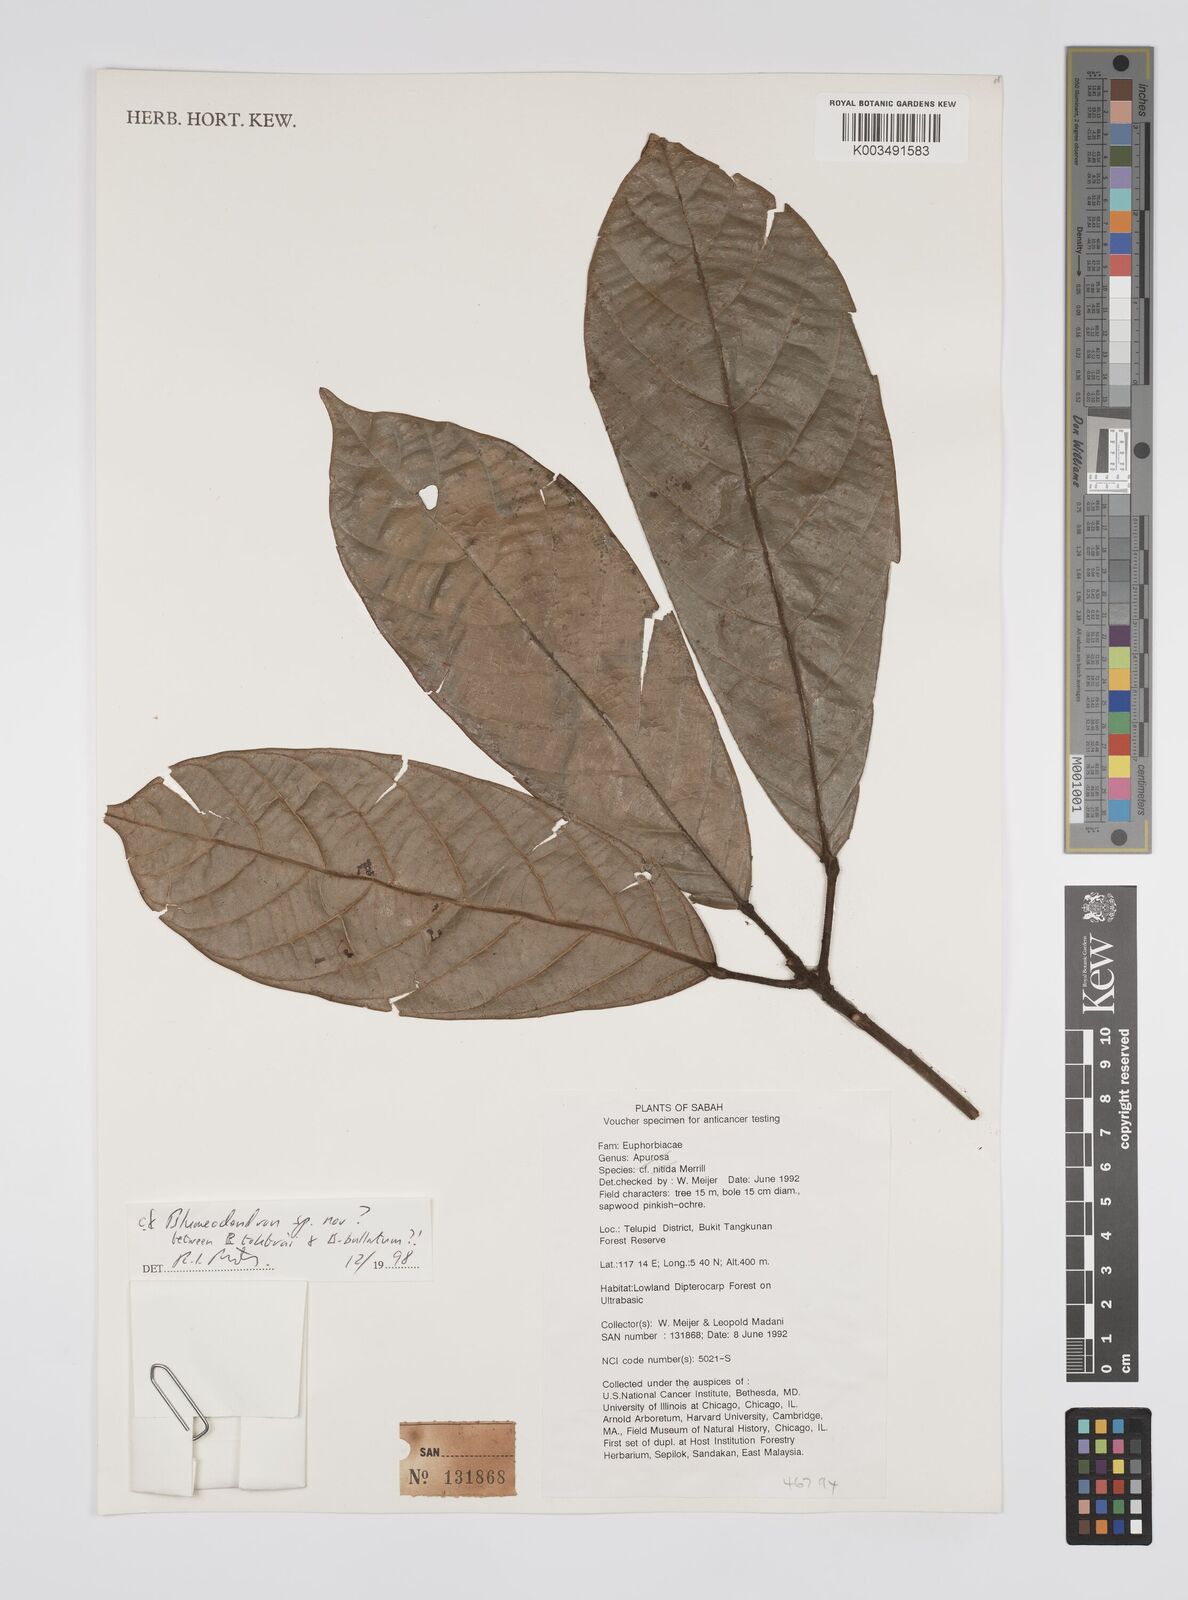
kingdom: Plantae
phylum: Tracheophyta
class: Magnoliopsida
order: Malpighiales
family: Euphorbiaceae
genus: Blumeodendron
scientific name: Blumeodendron
